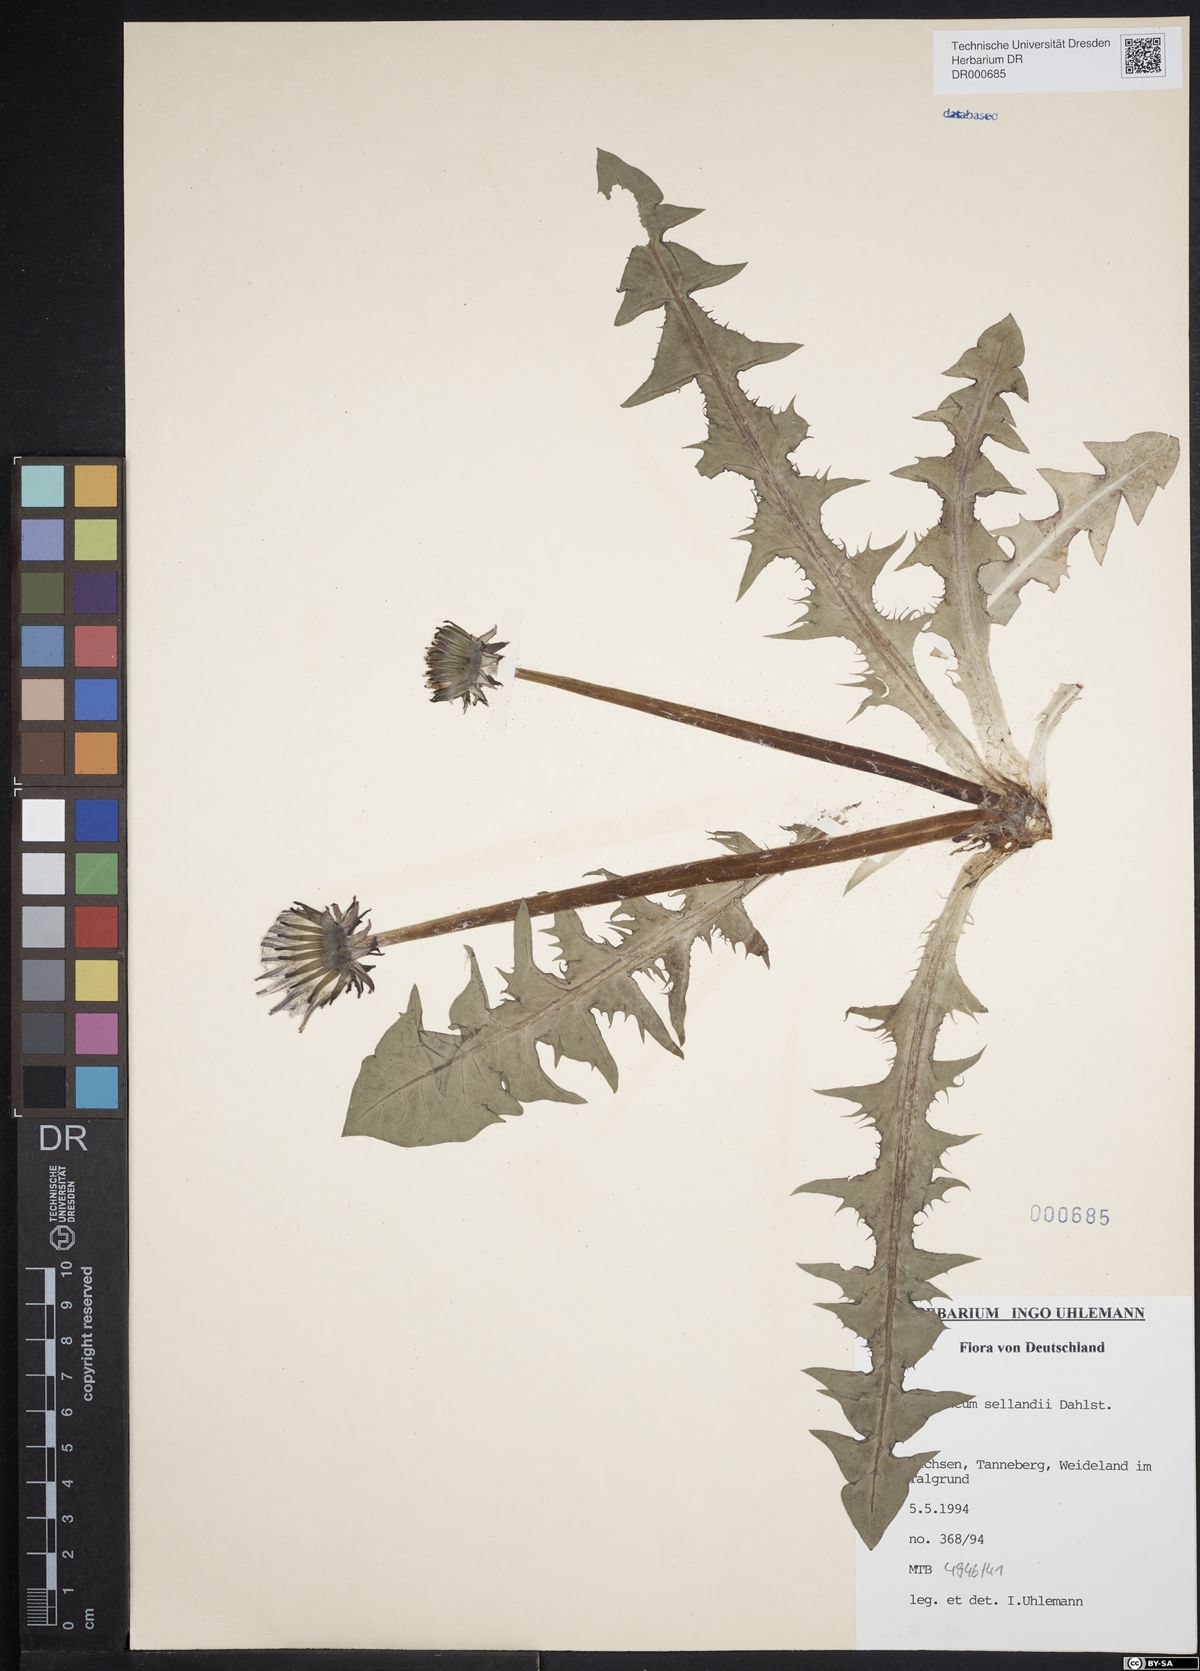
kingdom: Plantae
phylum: Tracheophyta
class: Magnoliopsida
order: Asterales
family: Asteraceae
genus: Taraxacum
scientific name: Taraxacum sellandii
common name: Selland's dandelion
